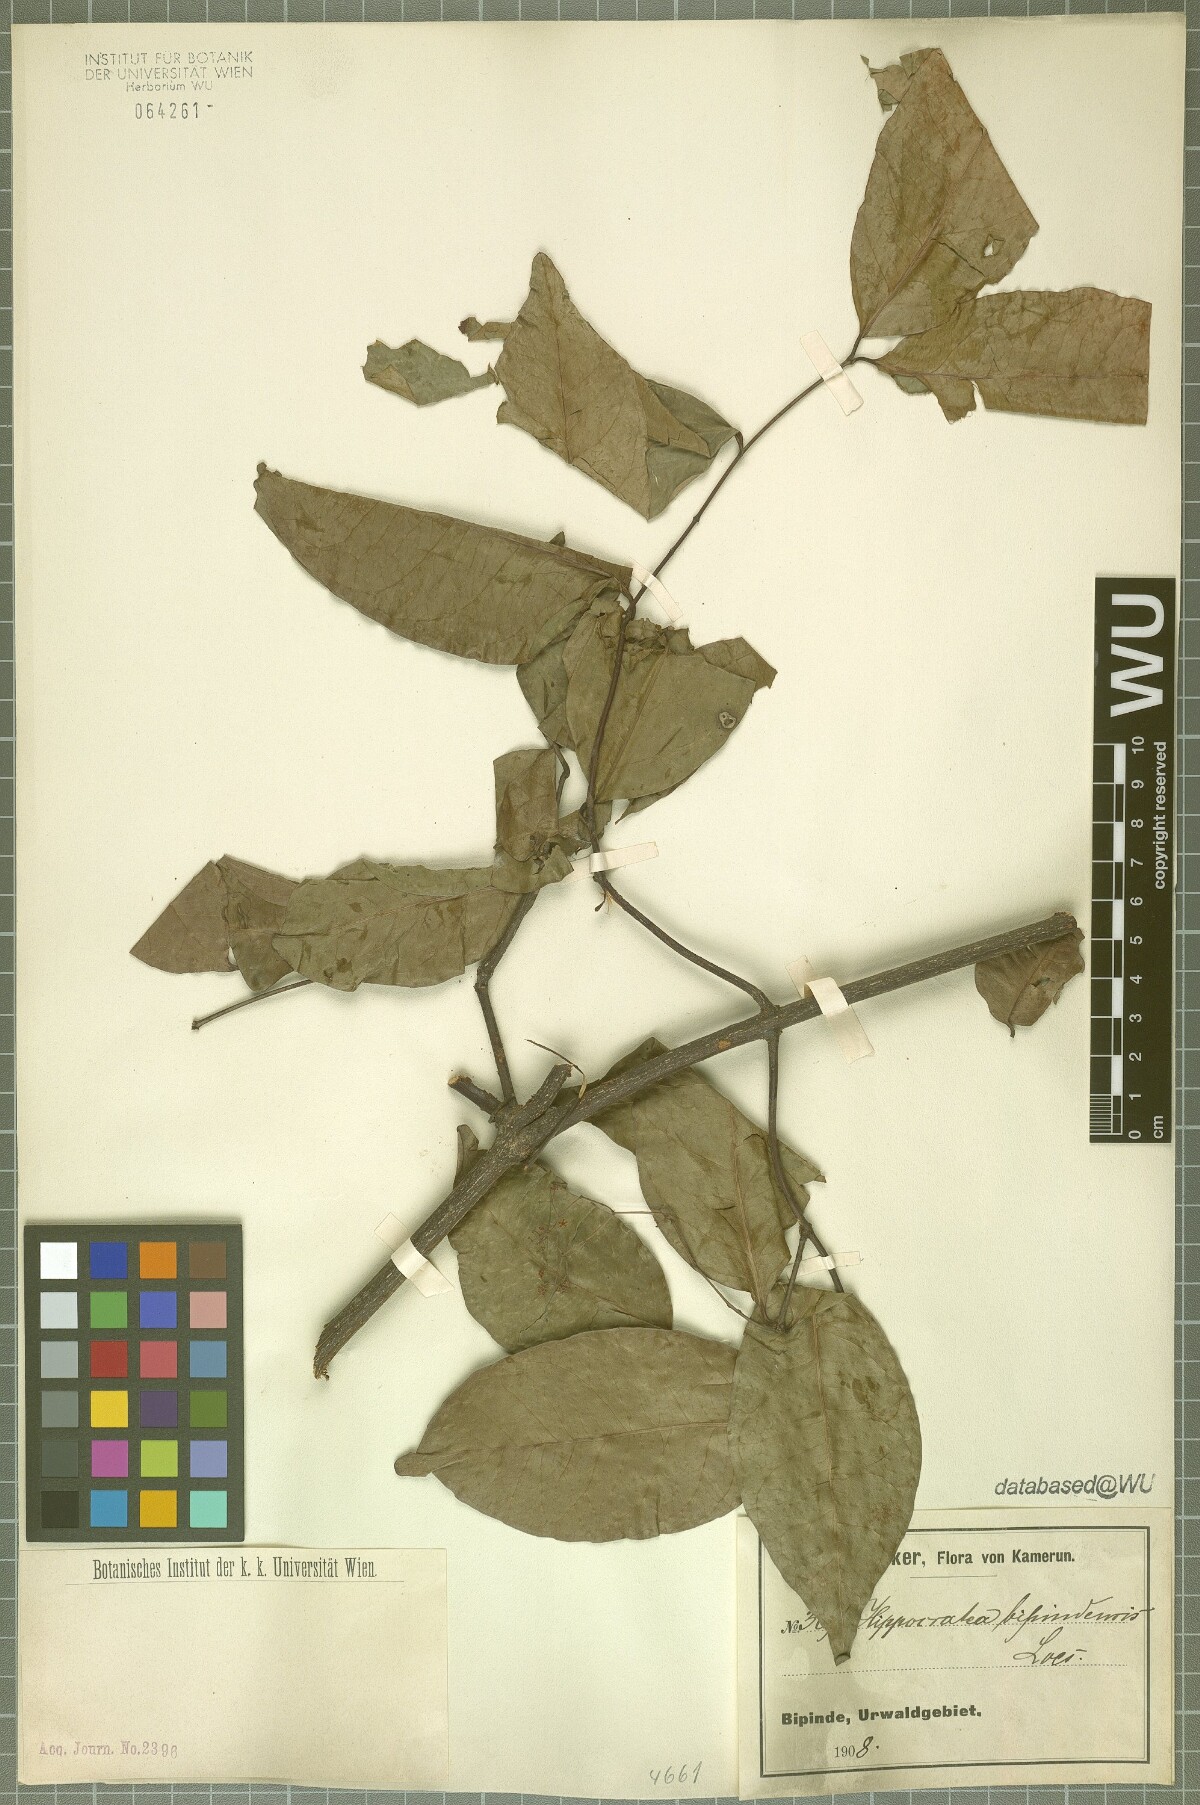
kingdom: Plantae
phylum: Tracheophyta
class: Magnoliopsida
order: Celastrales
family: Celastraceae
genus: Elachyptera
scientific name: Elachyptera bipindensis
